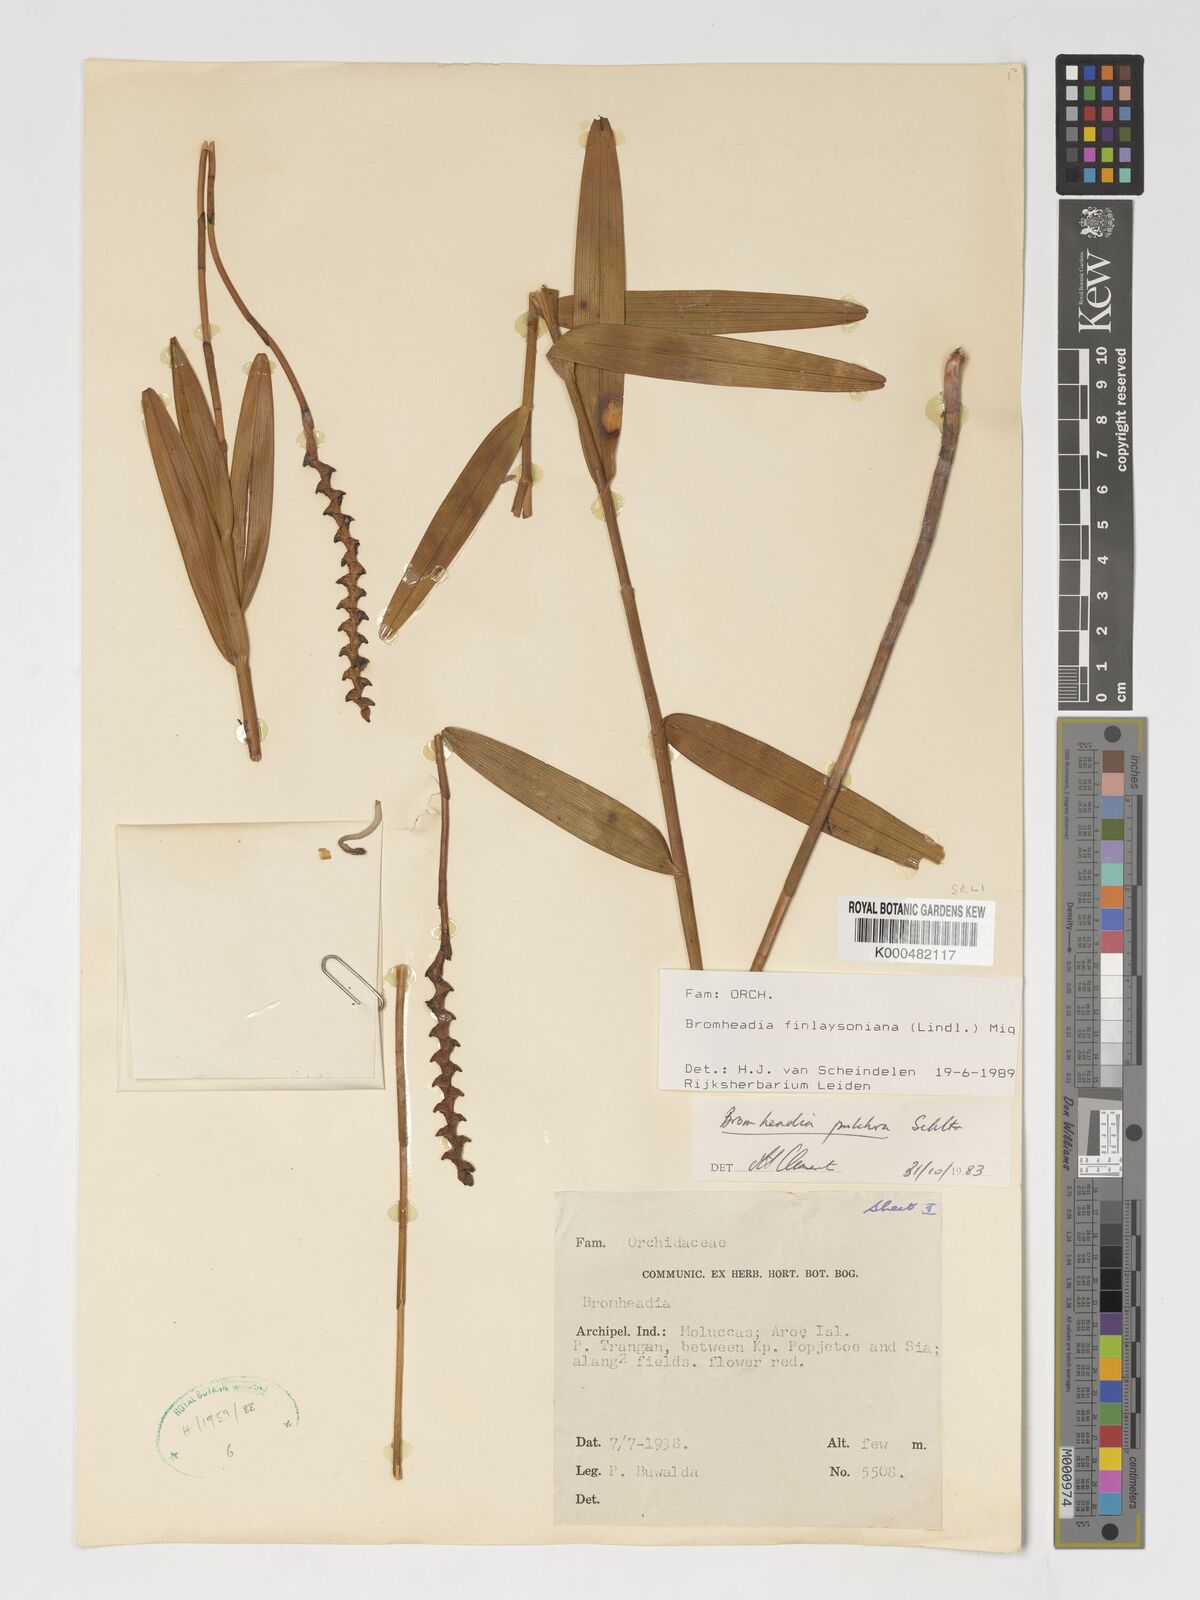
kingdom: Plantae
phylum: Tracheophyta
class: Liliopsida
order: Asparagales
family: Orchidaceae
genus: Bromheadia
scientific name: Bromheadia finlaysoniana
